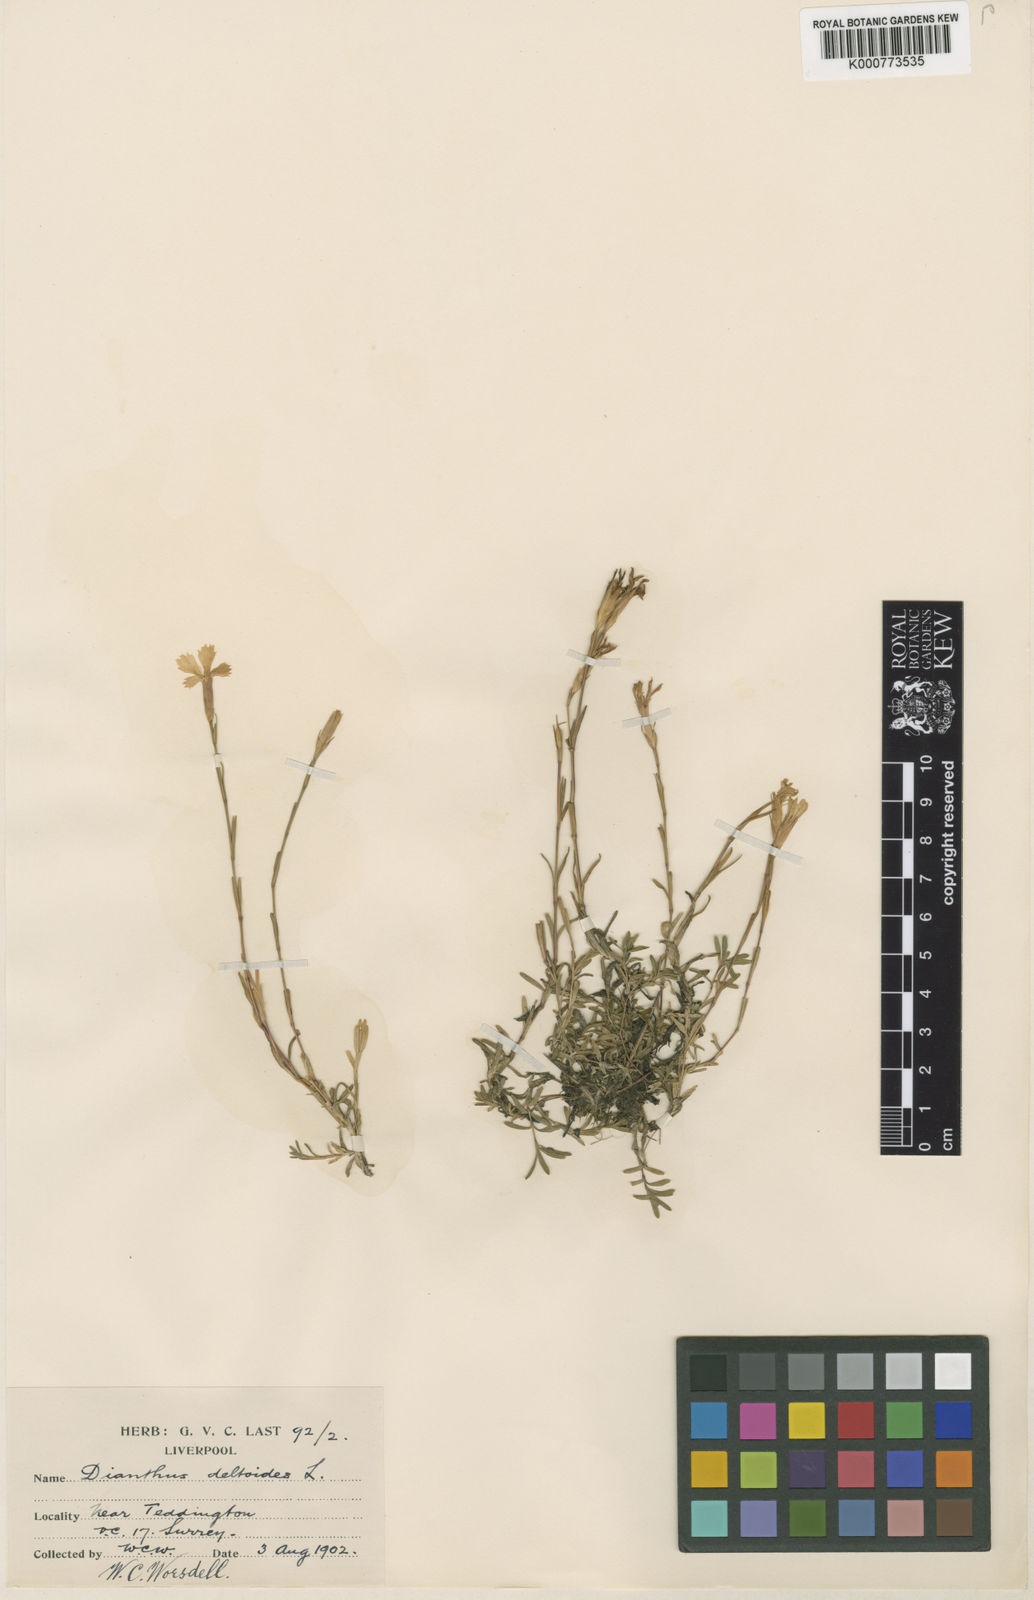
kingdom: Plantae
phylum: Tracheophyta
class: Magnoliopsida
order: Caryophyllales
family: Caryophyllaceae
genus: Dianthus
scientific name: Dianthus deltoides
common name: Maiden pink
